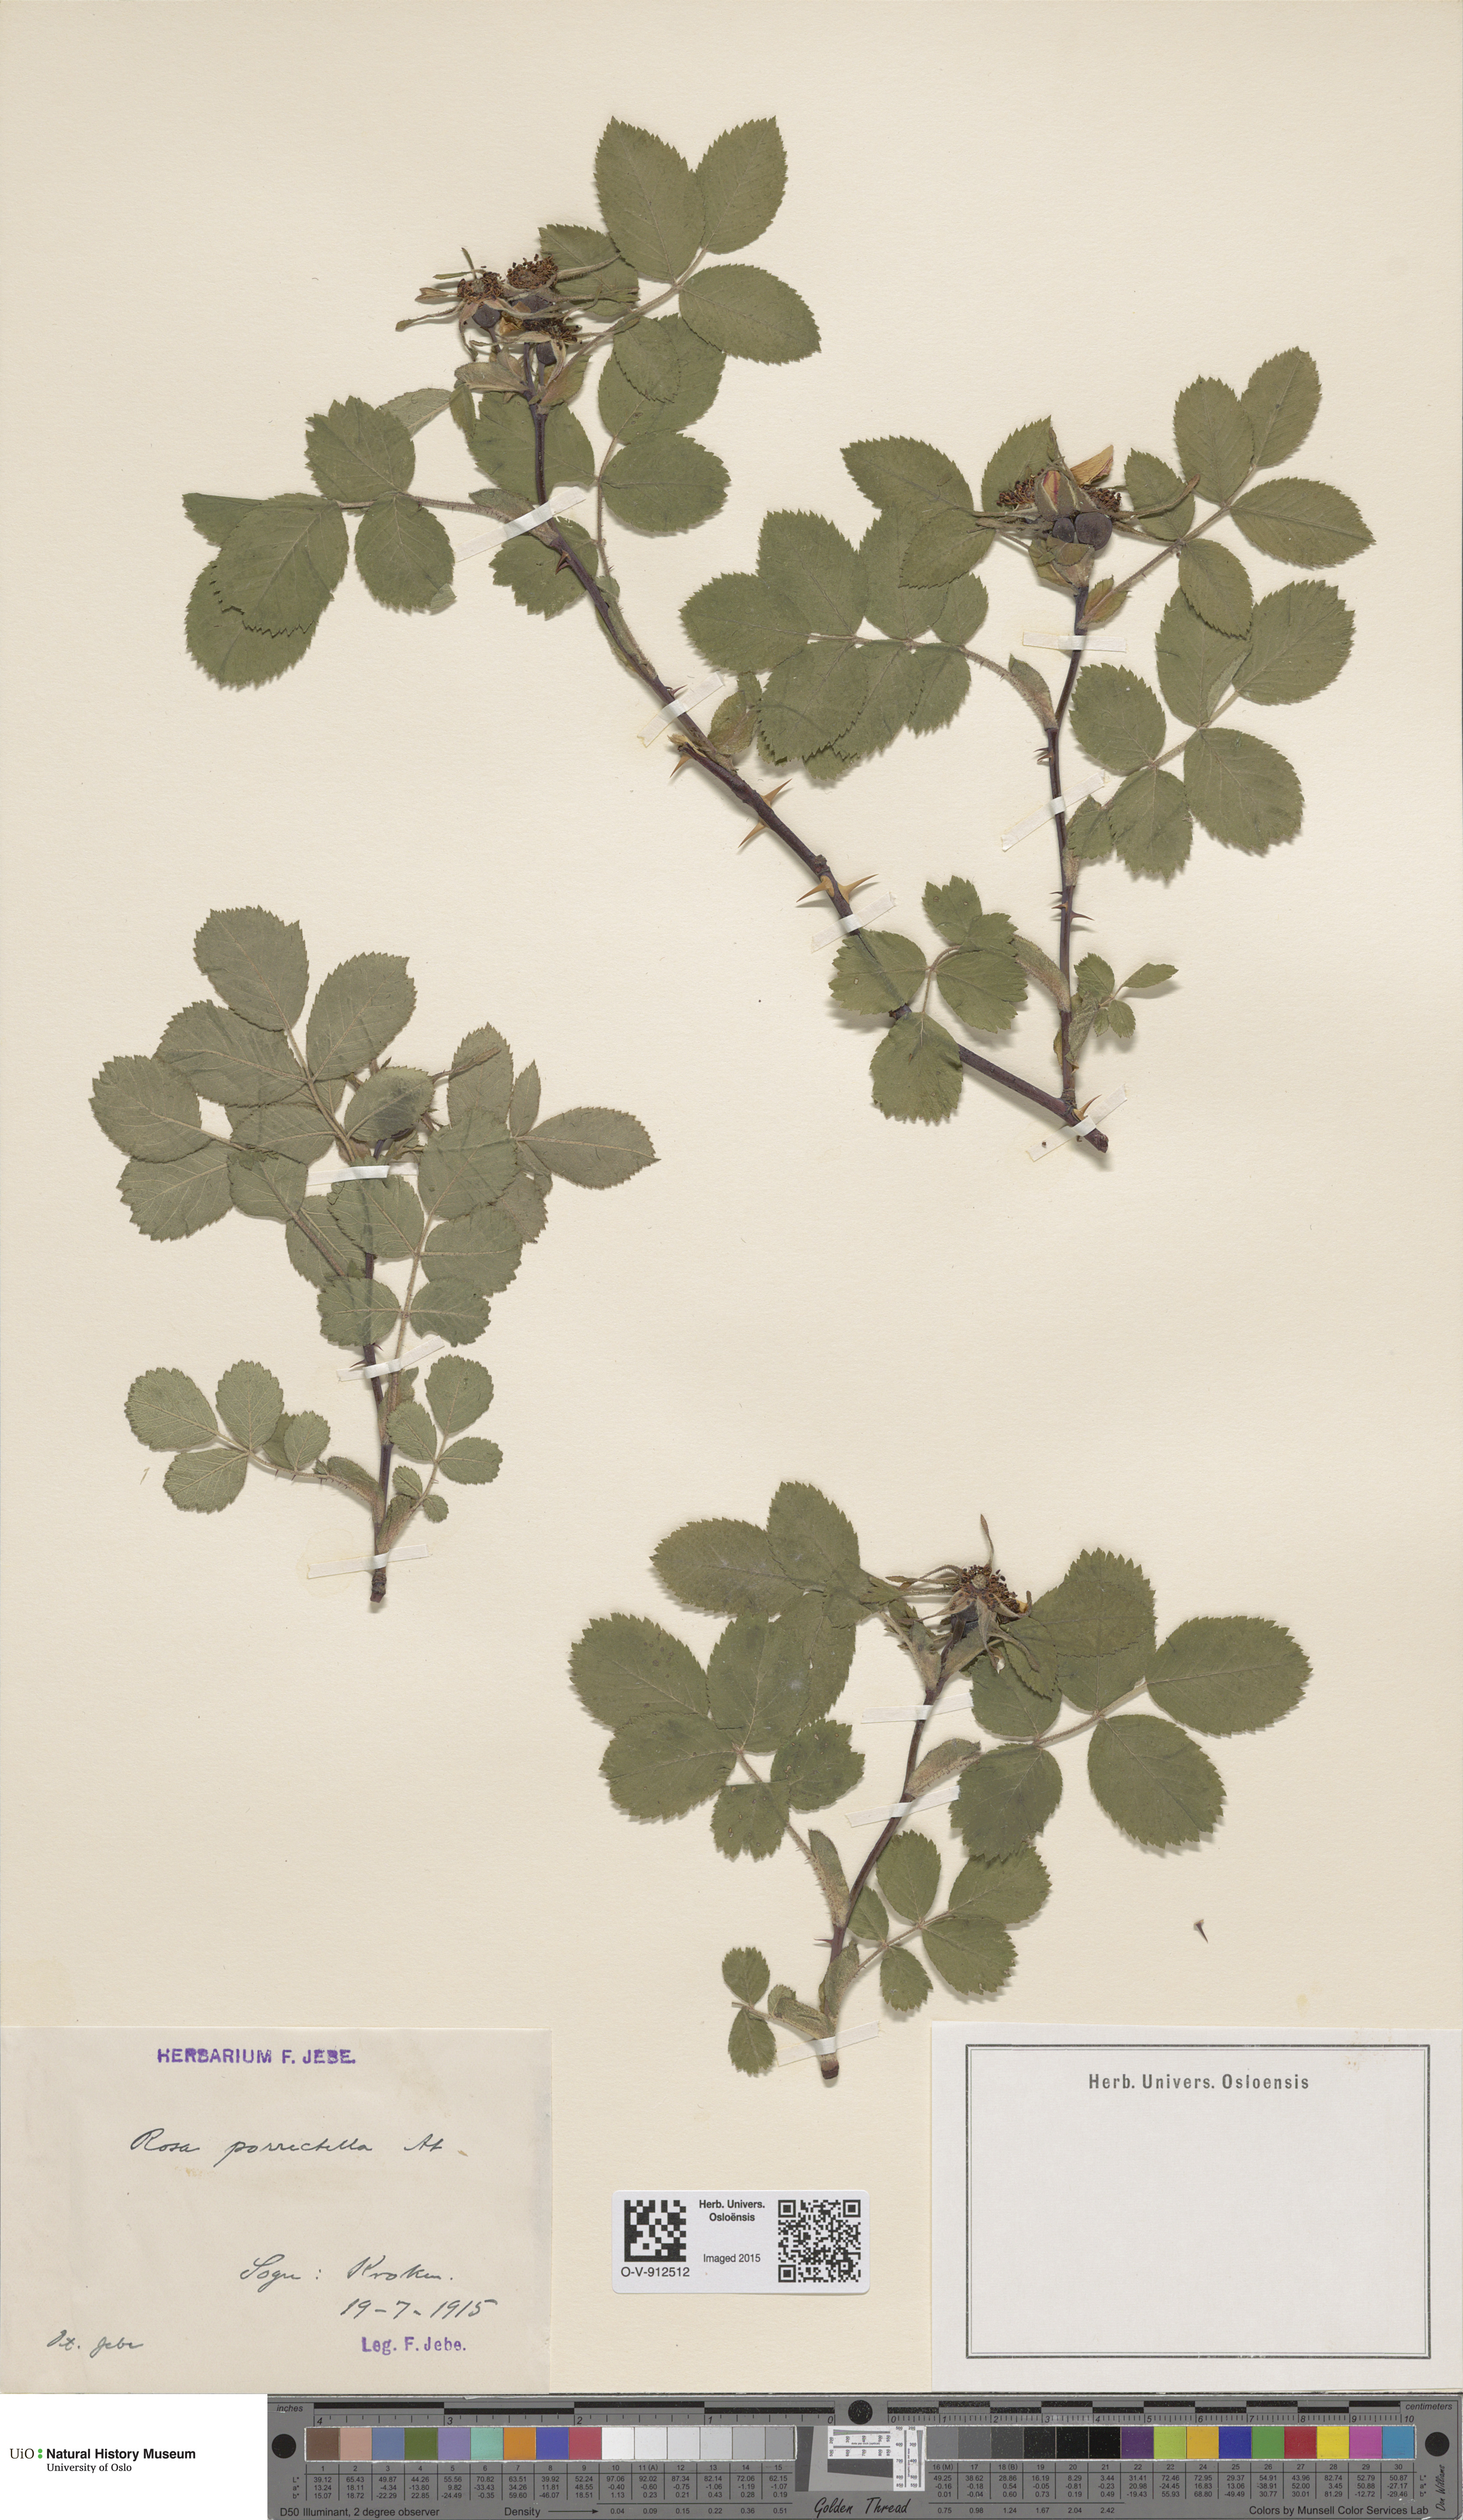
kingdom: Plantae
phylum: Tracheophyta
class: Magnoliopsida
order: Rosales
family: Rosaceae
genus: Rosa
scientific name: Rosa mollis
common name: Rose
